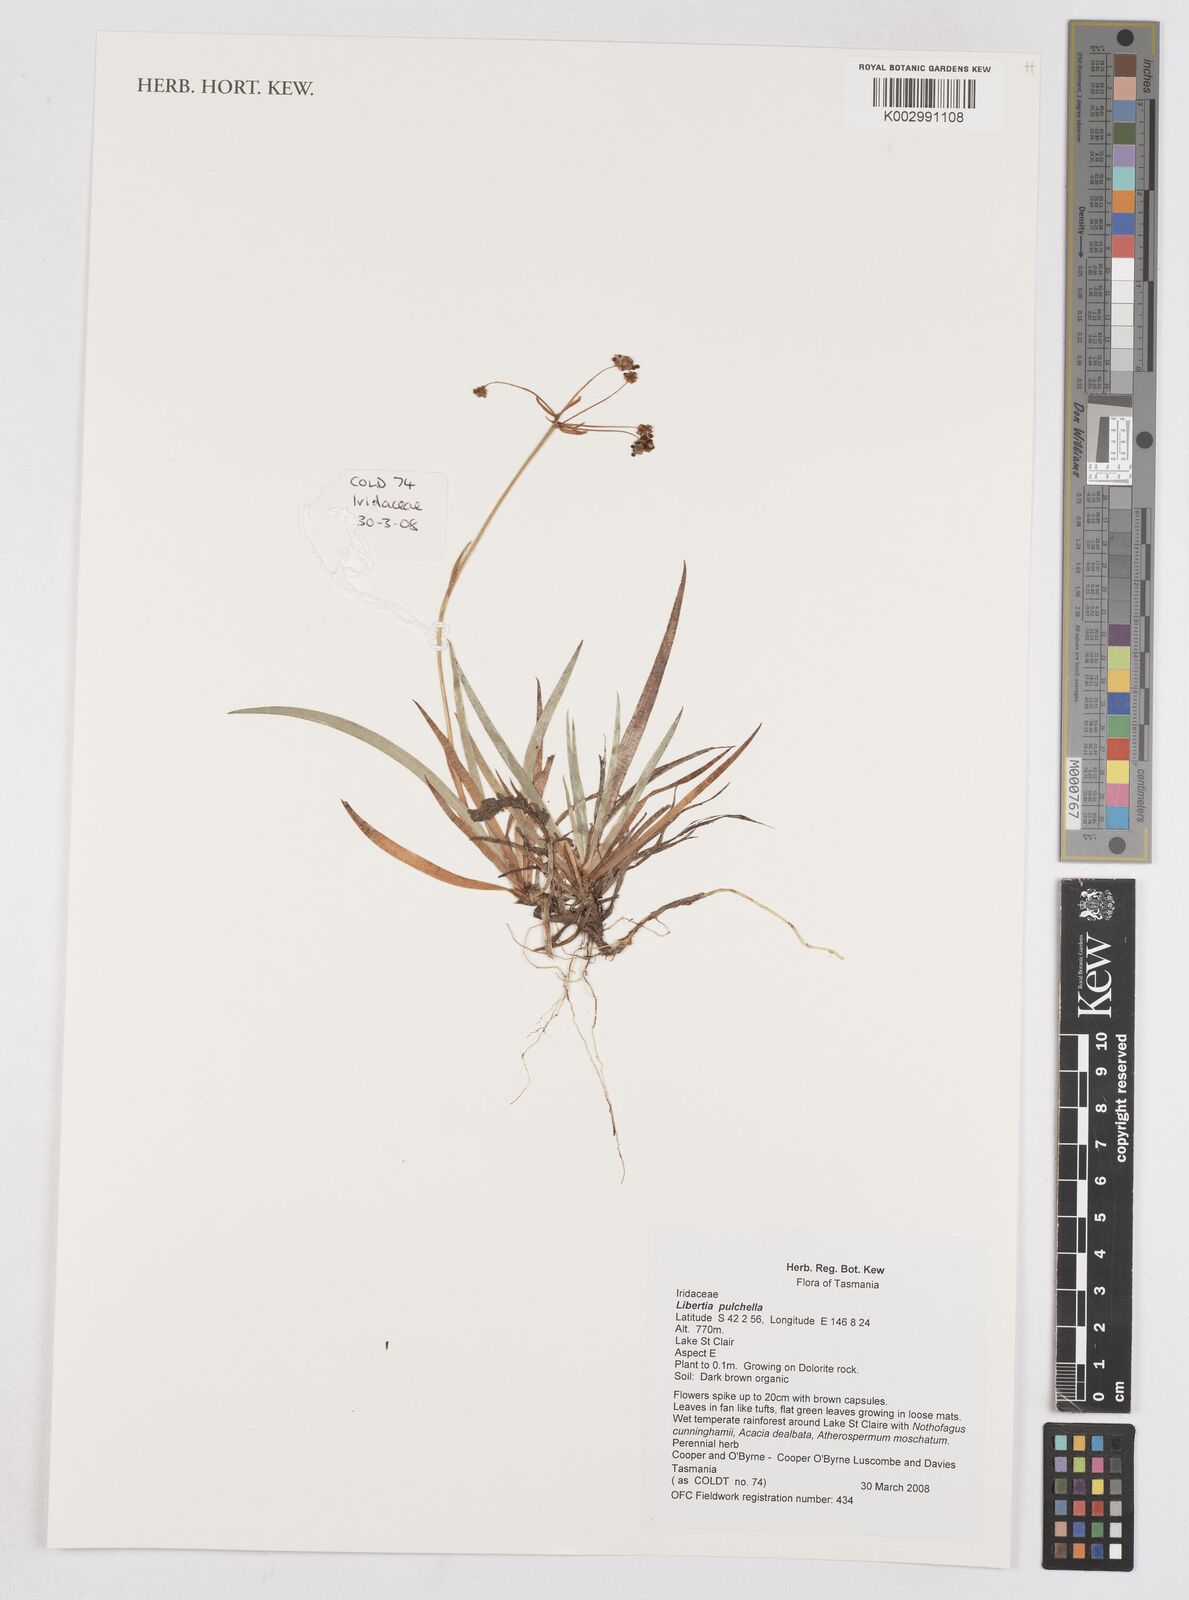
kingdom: Plantae
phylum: Tracheophyta
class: Liliopsida
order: Asparagales
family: Iridaceae
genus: Libertia
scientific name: Libertia pulchella
